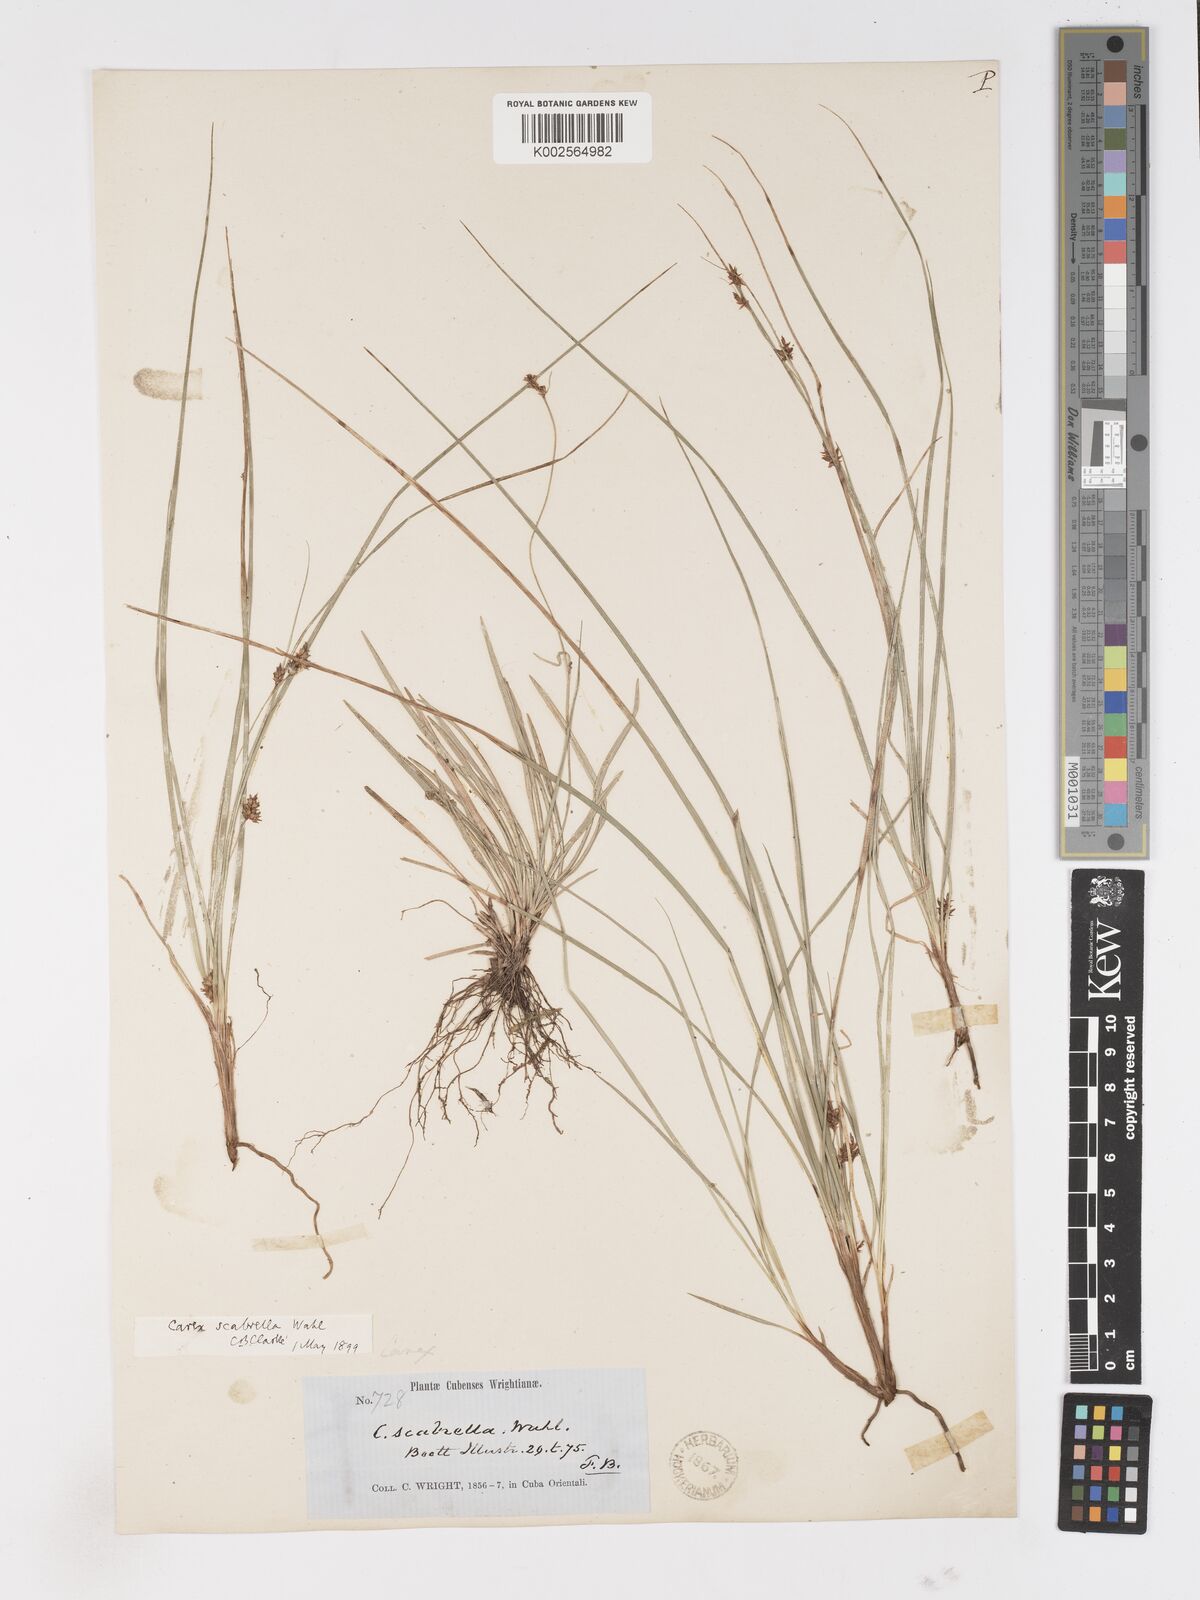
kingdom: Plantae
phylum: Tracheophyta
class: Liliopsida
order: Poales
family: Cyperaceae
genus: Carex
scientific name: Carex scabrella
